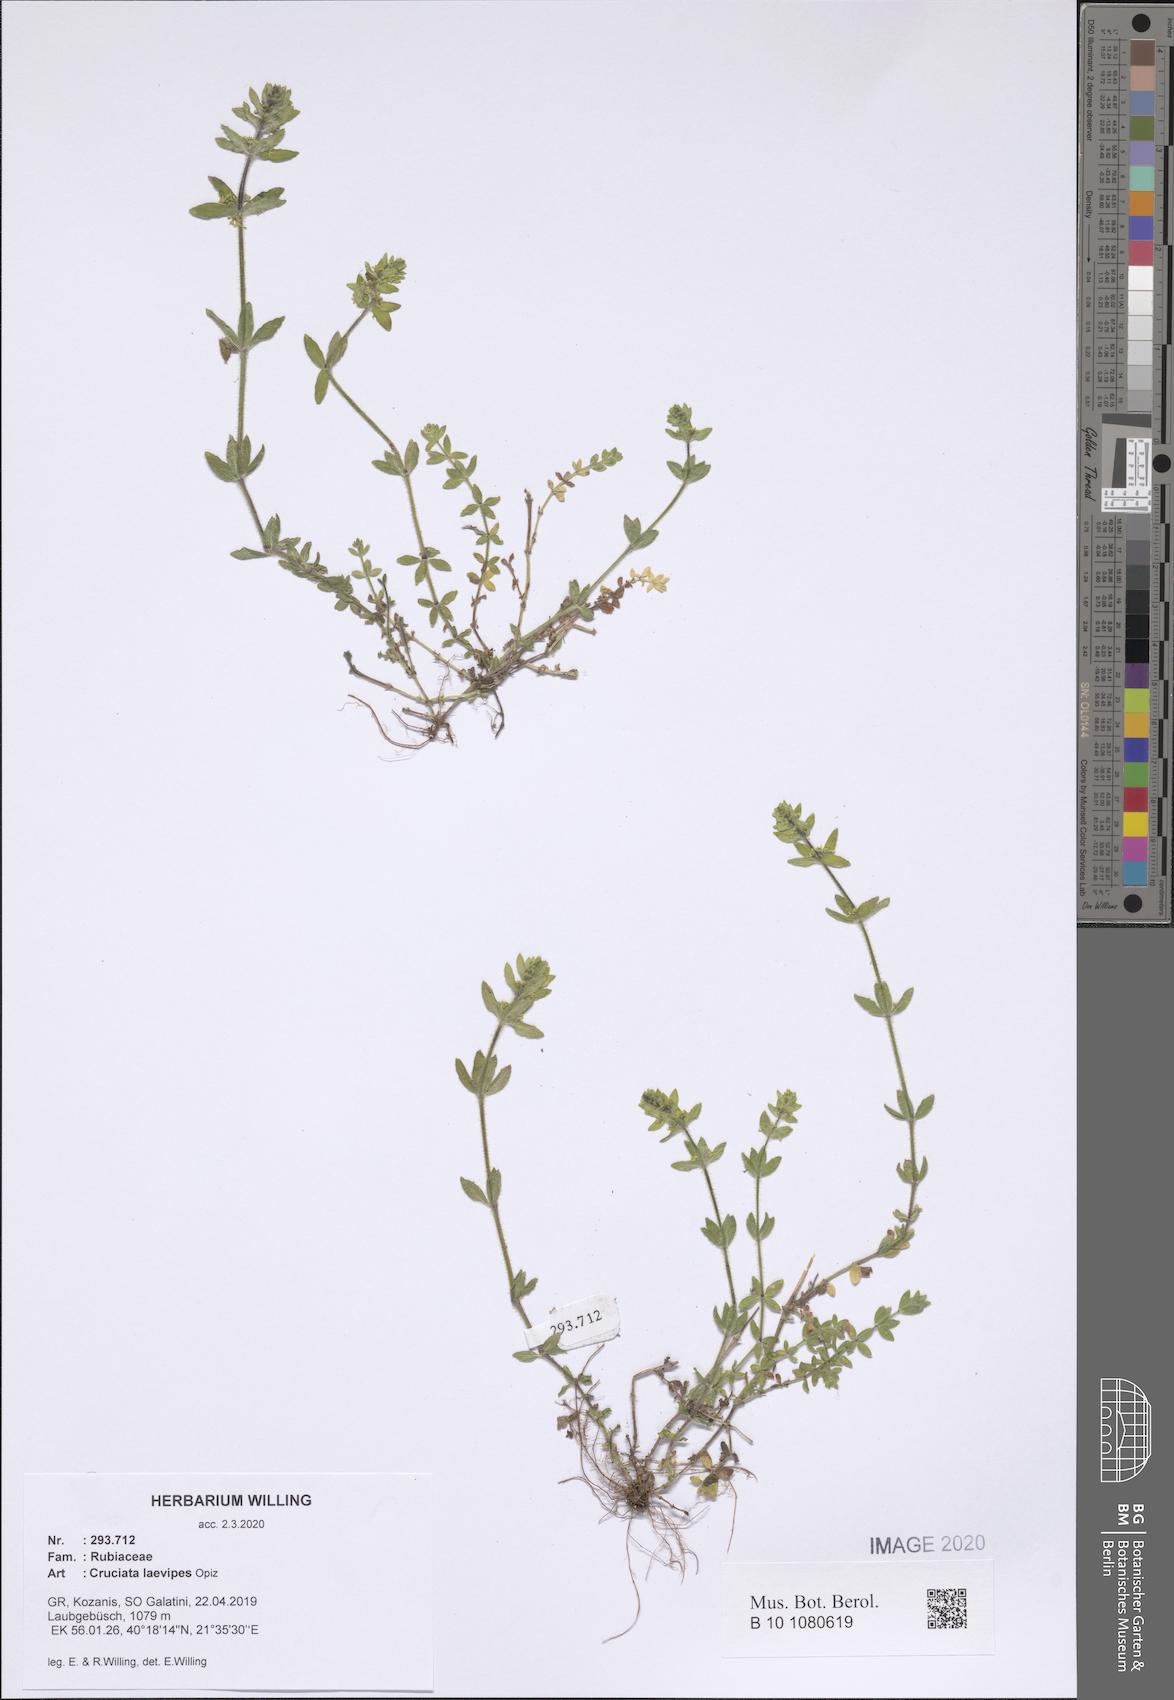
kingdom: Plantae
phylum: Tracheophyta
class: Magnoliopsida
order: Gentianales
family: Rubiaceae
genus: Cruciata
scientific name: Cruciata laevipes
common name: Crosswort
